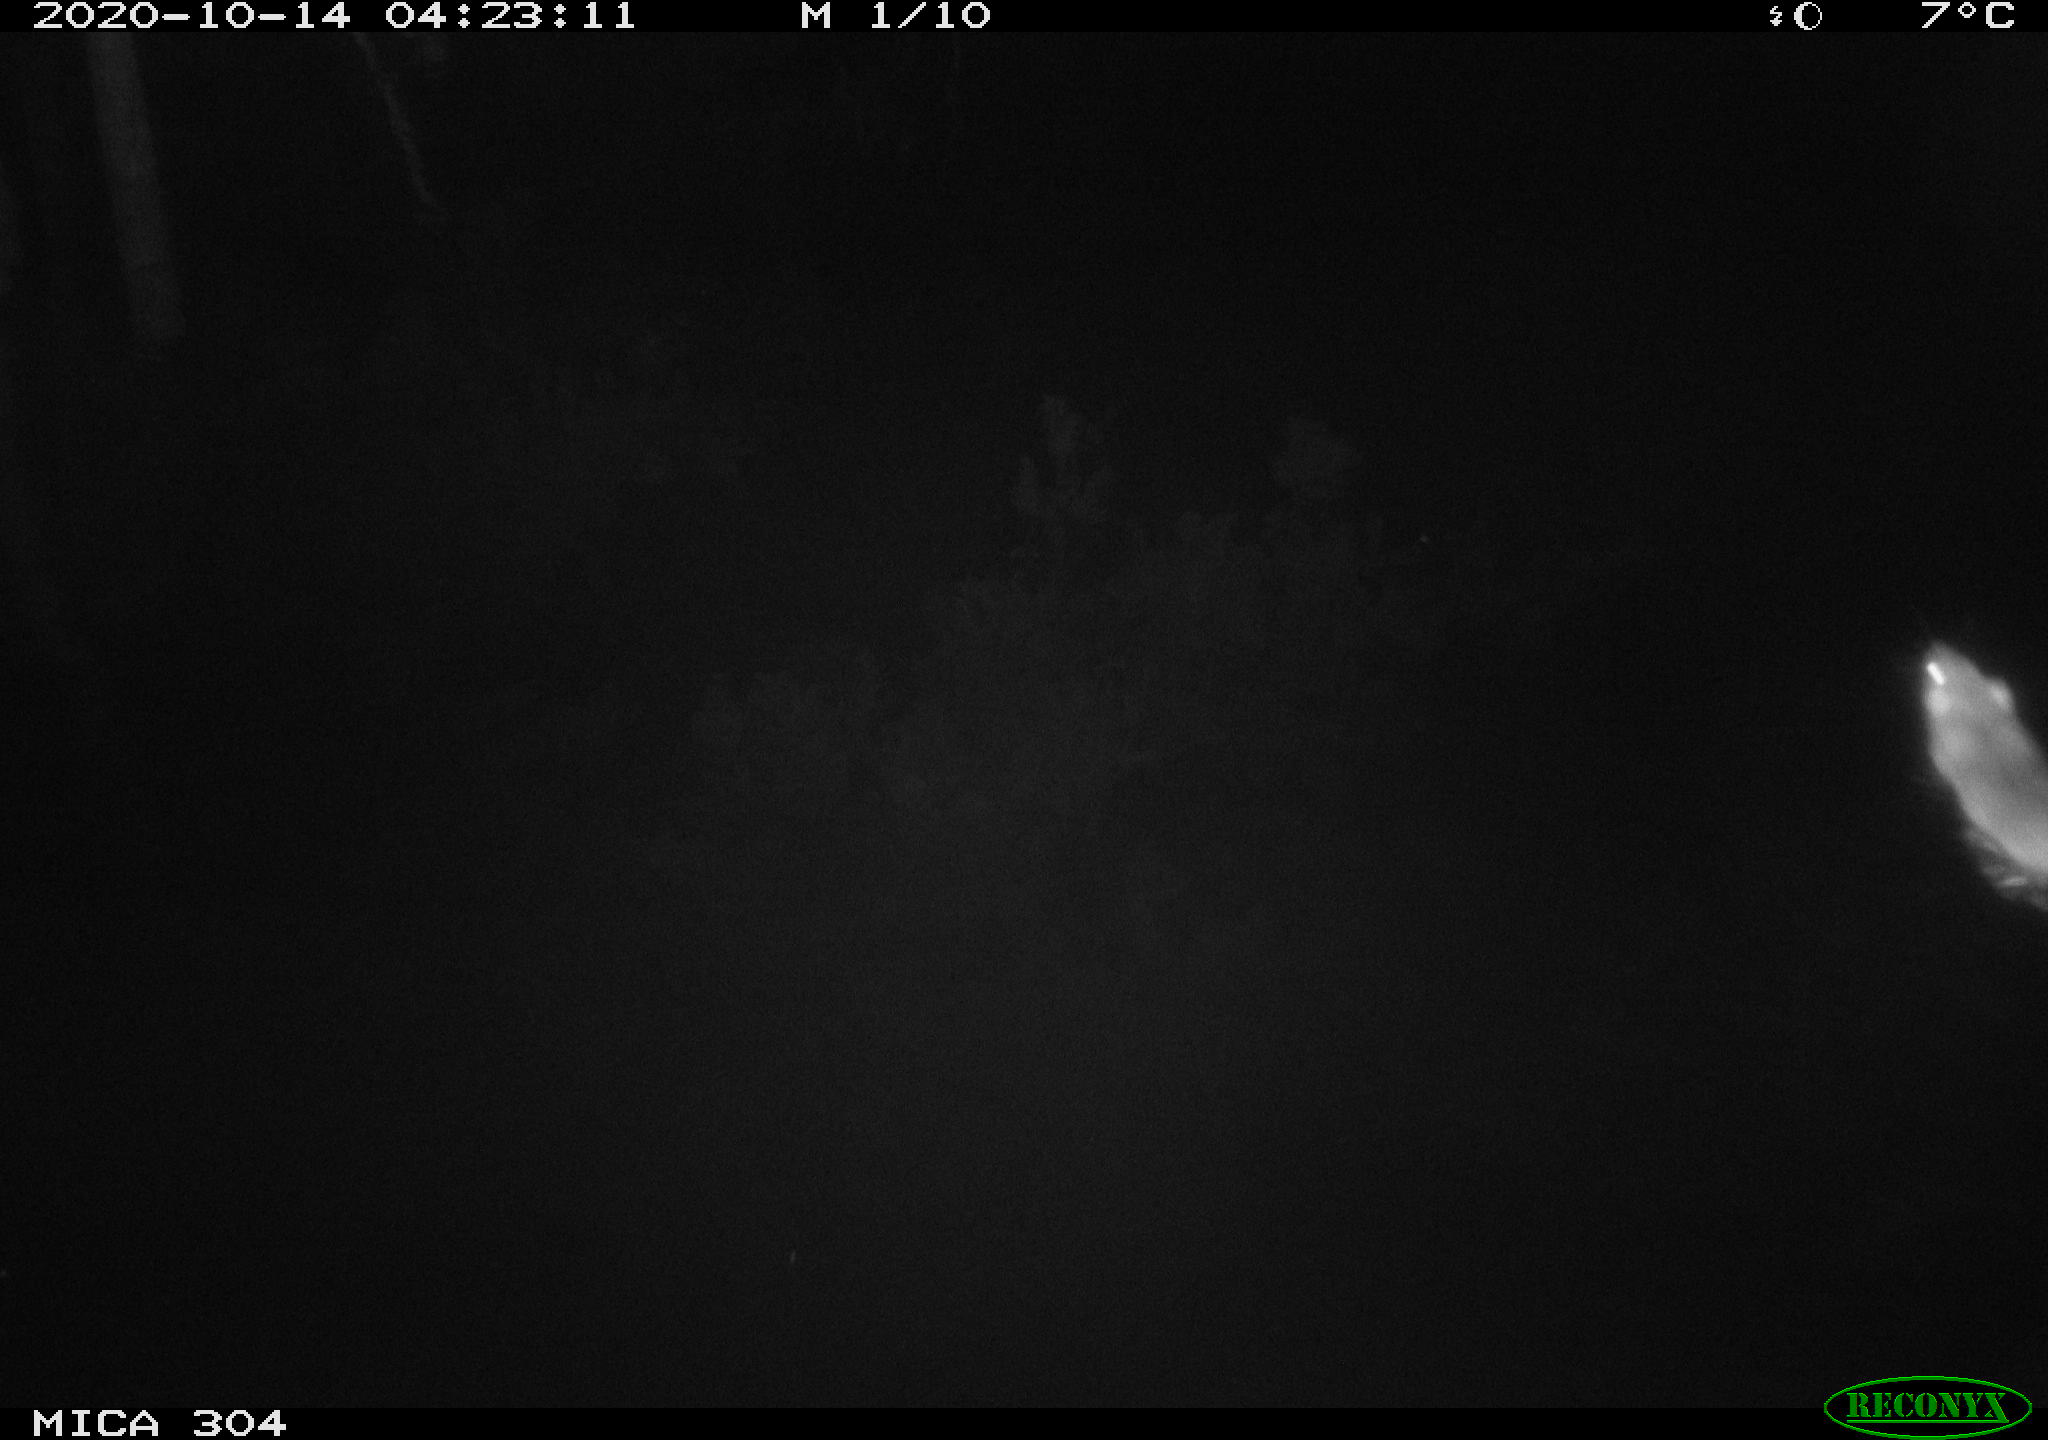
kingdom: Animalia
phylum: Chordata
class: Mammalia
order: Rodentia
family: Muridae
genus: Rattus
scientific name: Rattus norvegicus
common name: Brown rat
